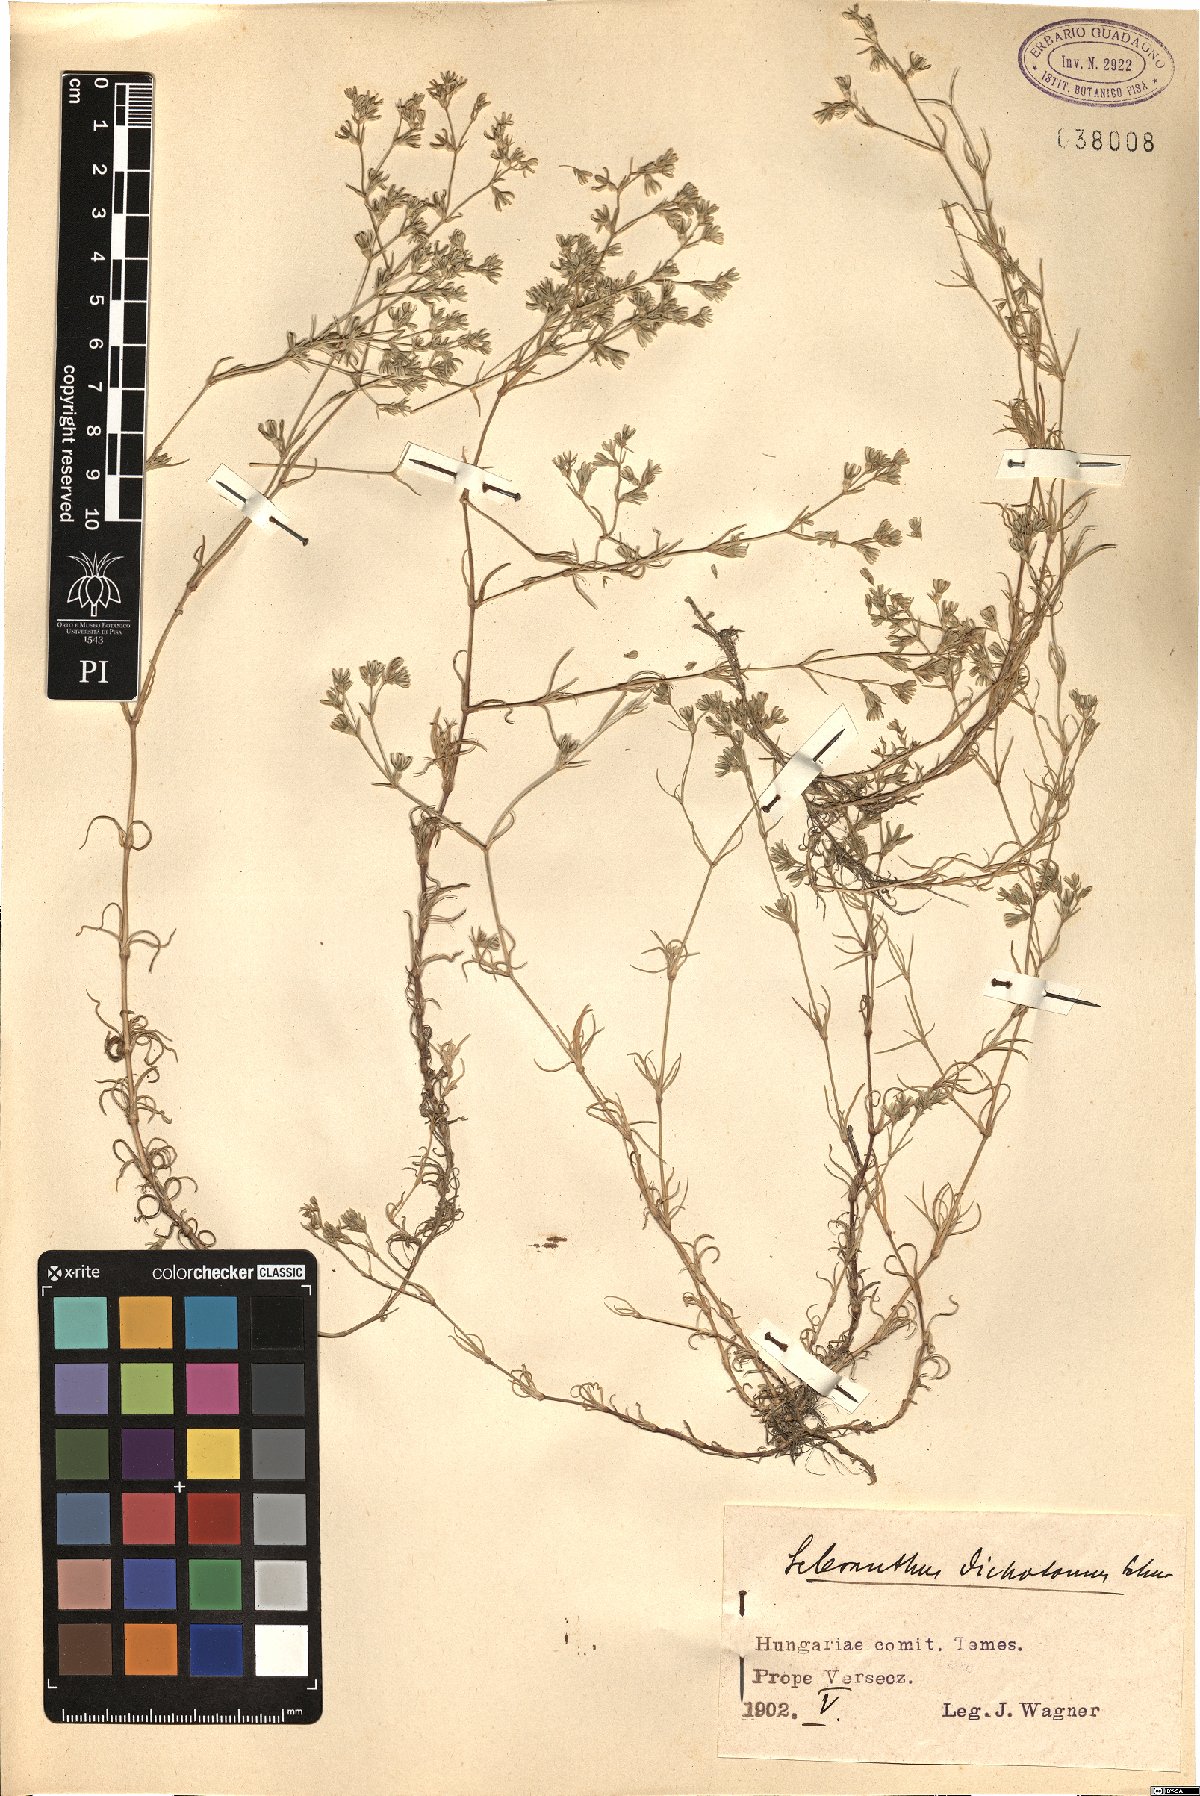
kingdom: Plantae
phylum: Tracheophyta
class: Magnoliopsida
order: Caryophyllales
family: Caryophyllaceae
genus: Scleranthus
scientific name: Scleranthus perennis
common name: Perennial knawel
